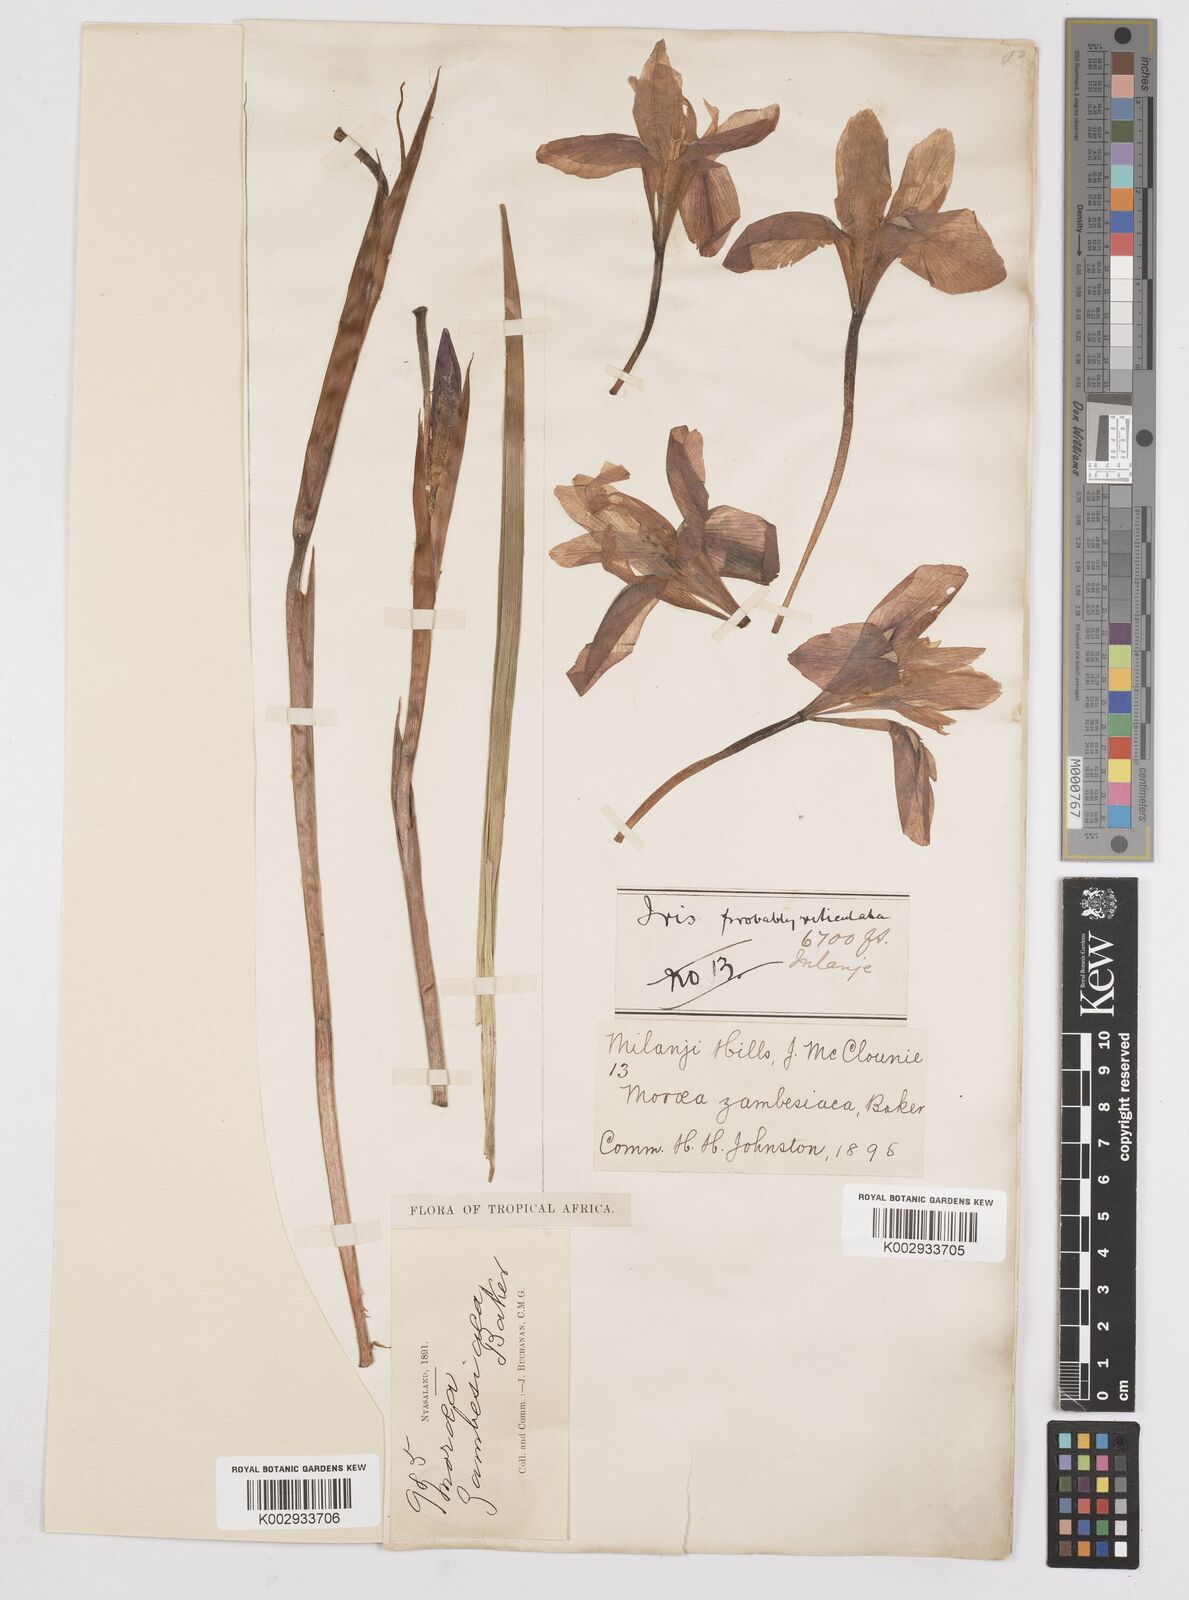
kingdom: Plantae
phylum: Tracheophyta
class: Liliopsida
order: Asparagales
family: Iridaceae
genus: Moraea
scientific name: Moraea
